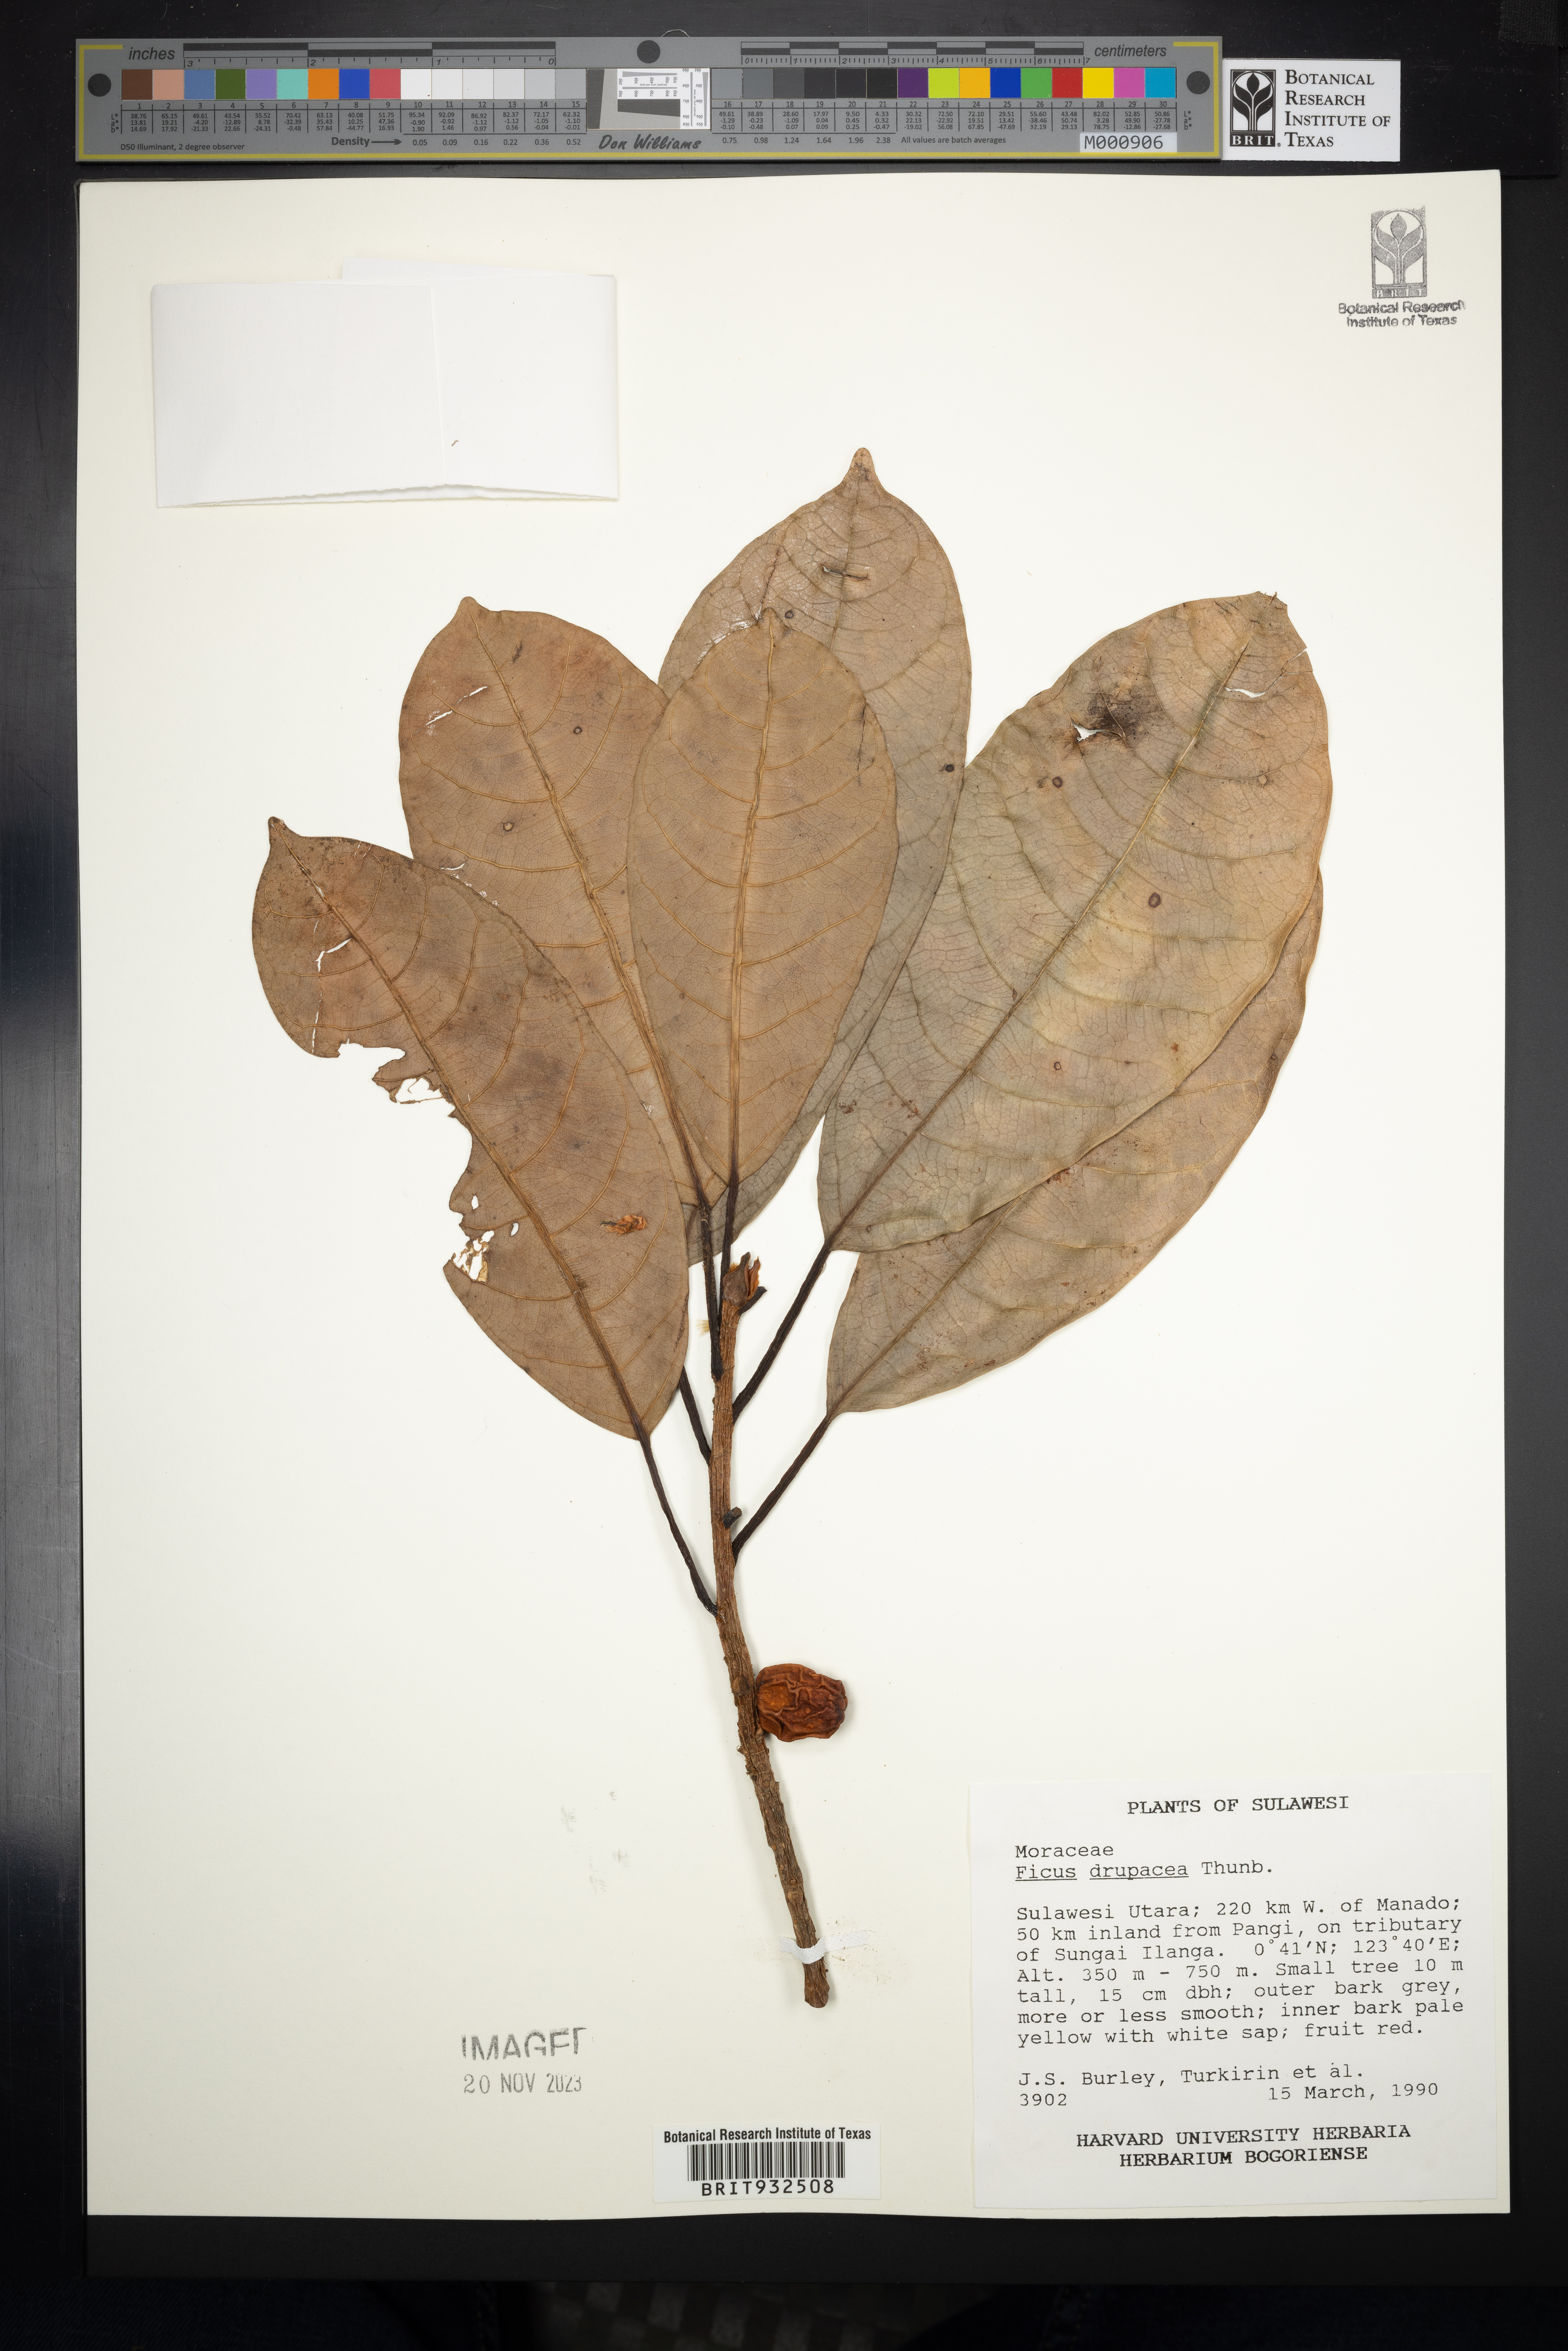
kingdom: Plantae
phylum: Tracheophyta
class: Magnoliopsida
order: Rosales
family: Moraceae
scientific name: Moraceae
